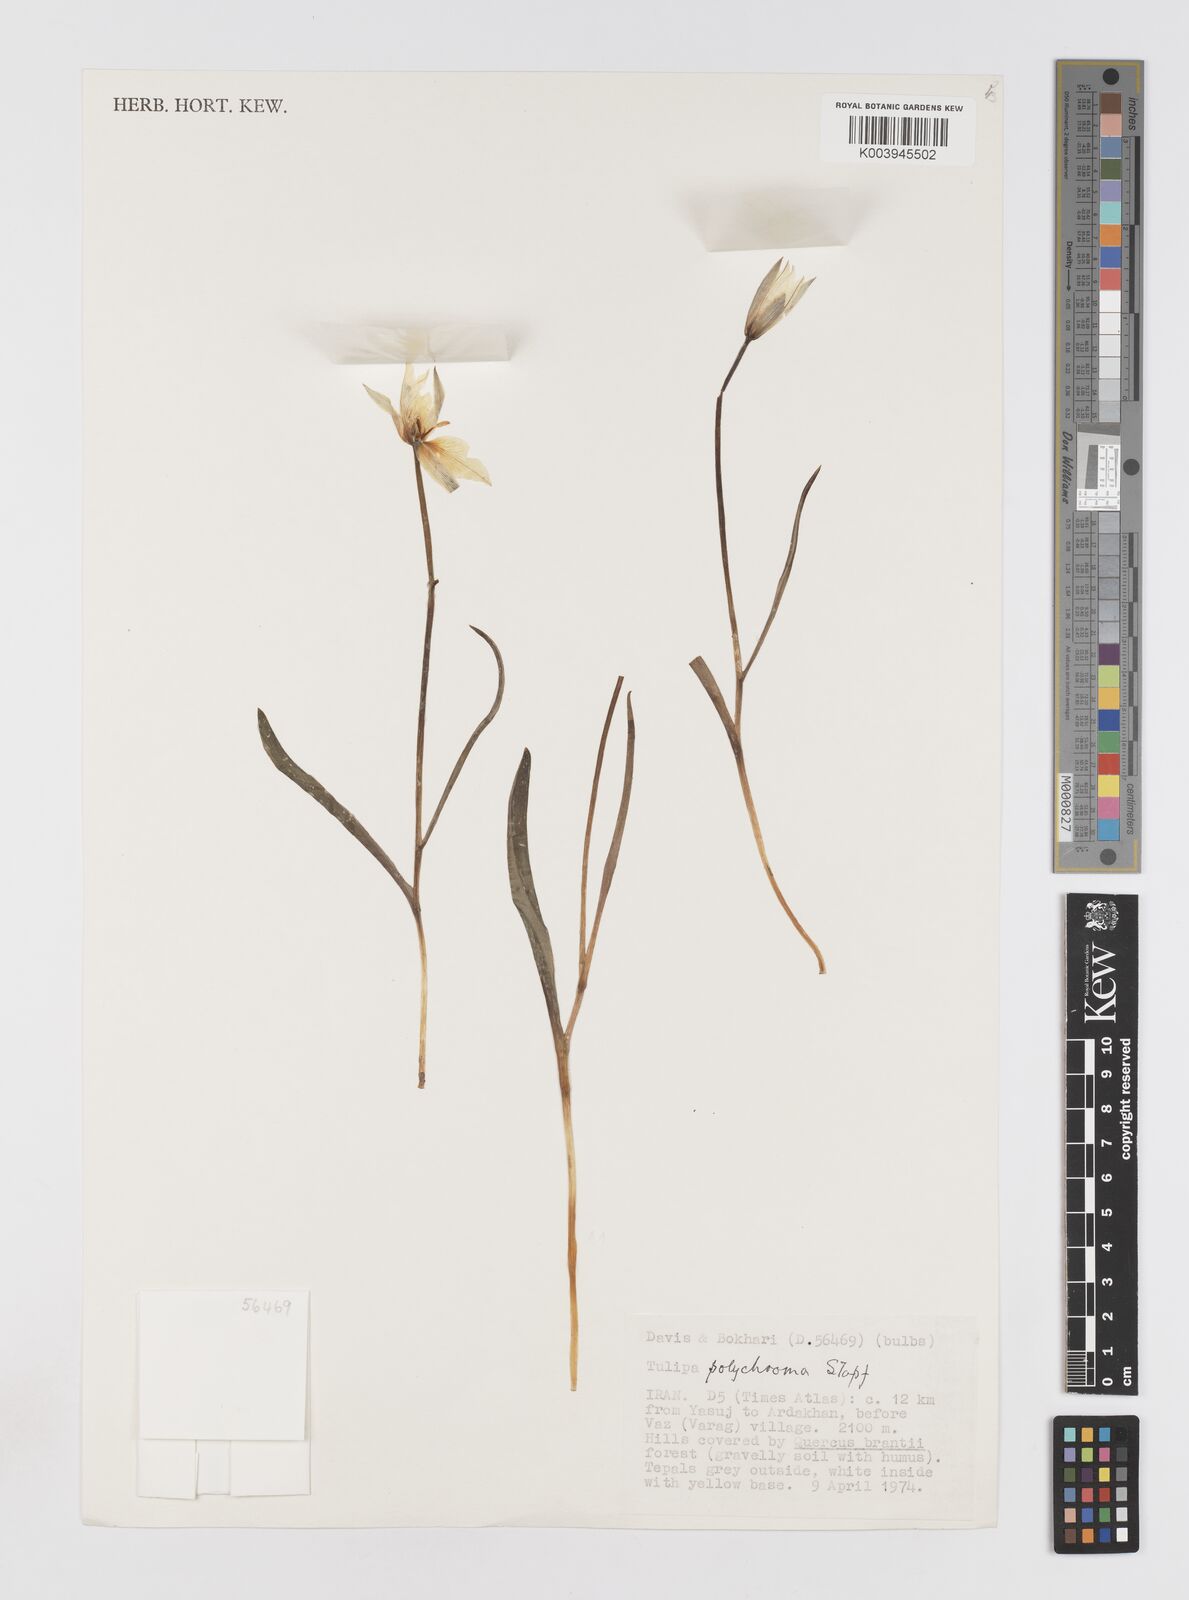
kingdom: Plantae
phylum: Tracheophyta
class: Liliopsida
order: Liliales
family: Liliaceae
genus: Tulipa
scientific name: Tulipa biflora
